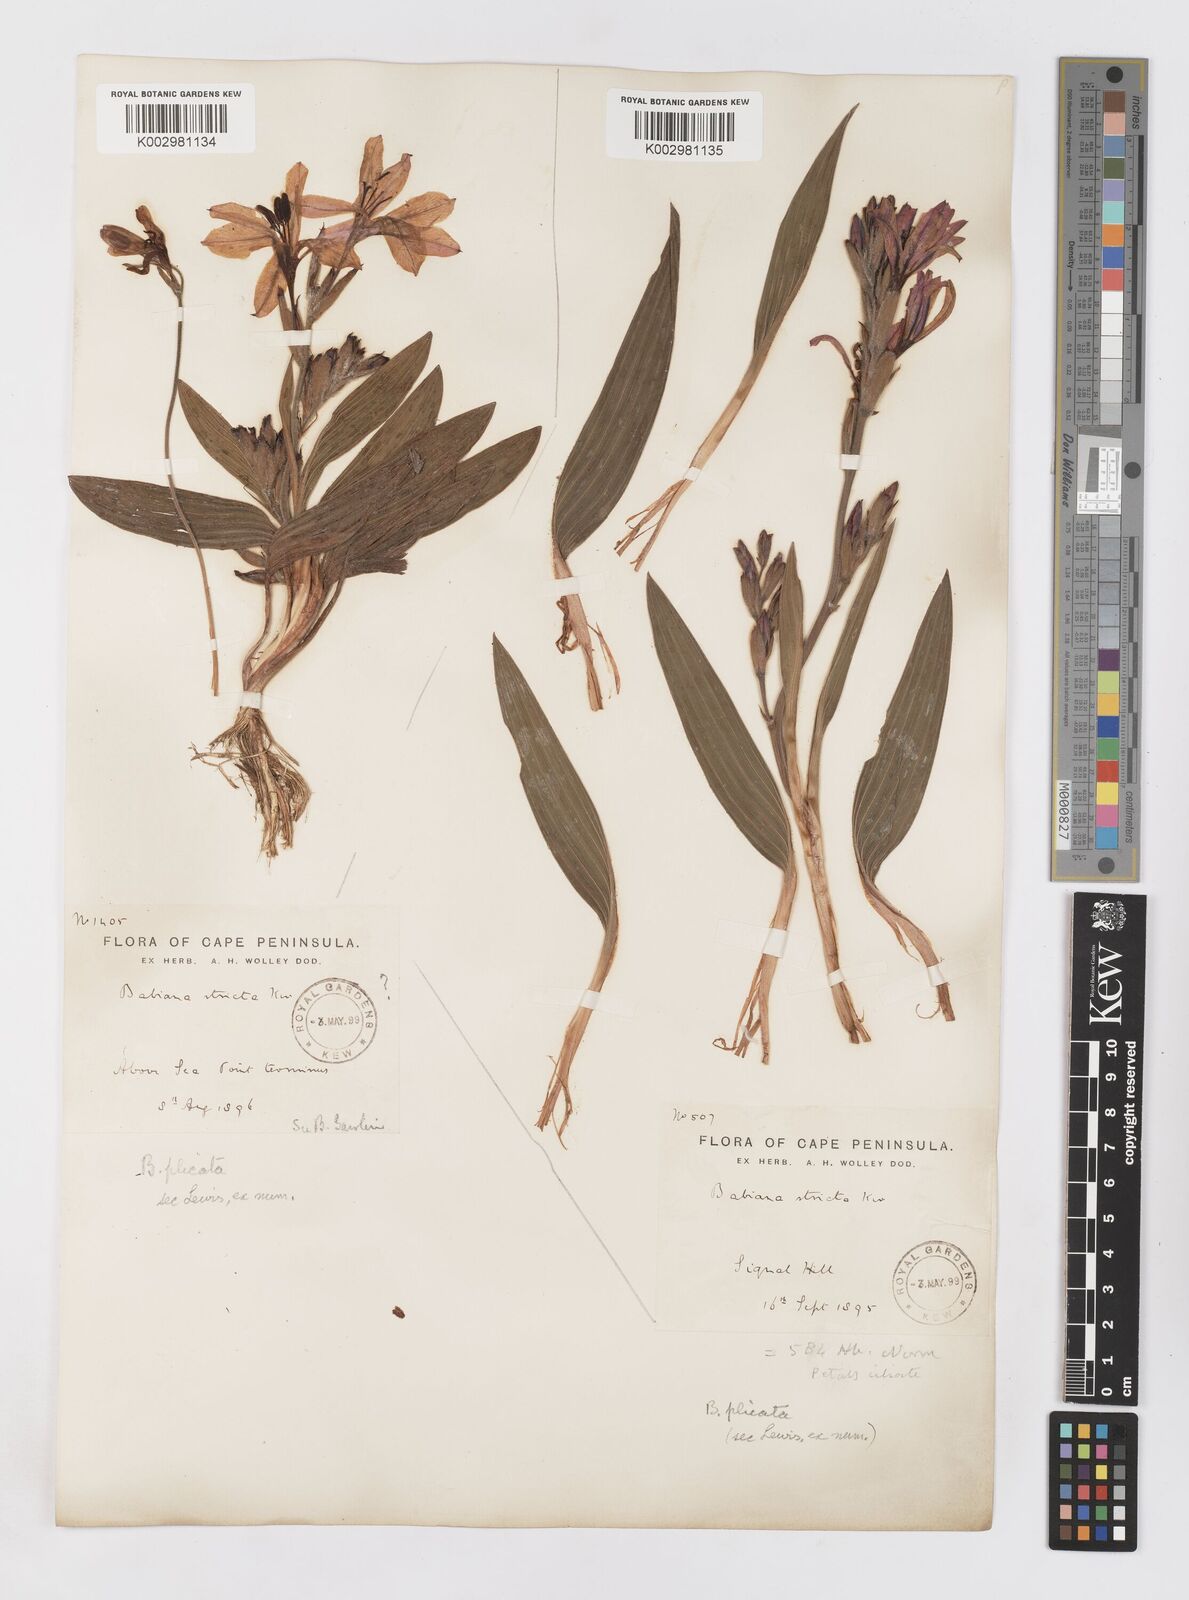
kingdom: Plantae
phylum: Tracheophyta
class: Liliopsida
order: Asparagales
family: Iridaceae
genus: Babiana
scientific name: Babiana
